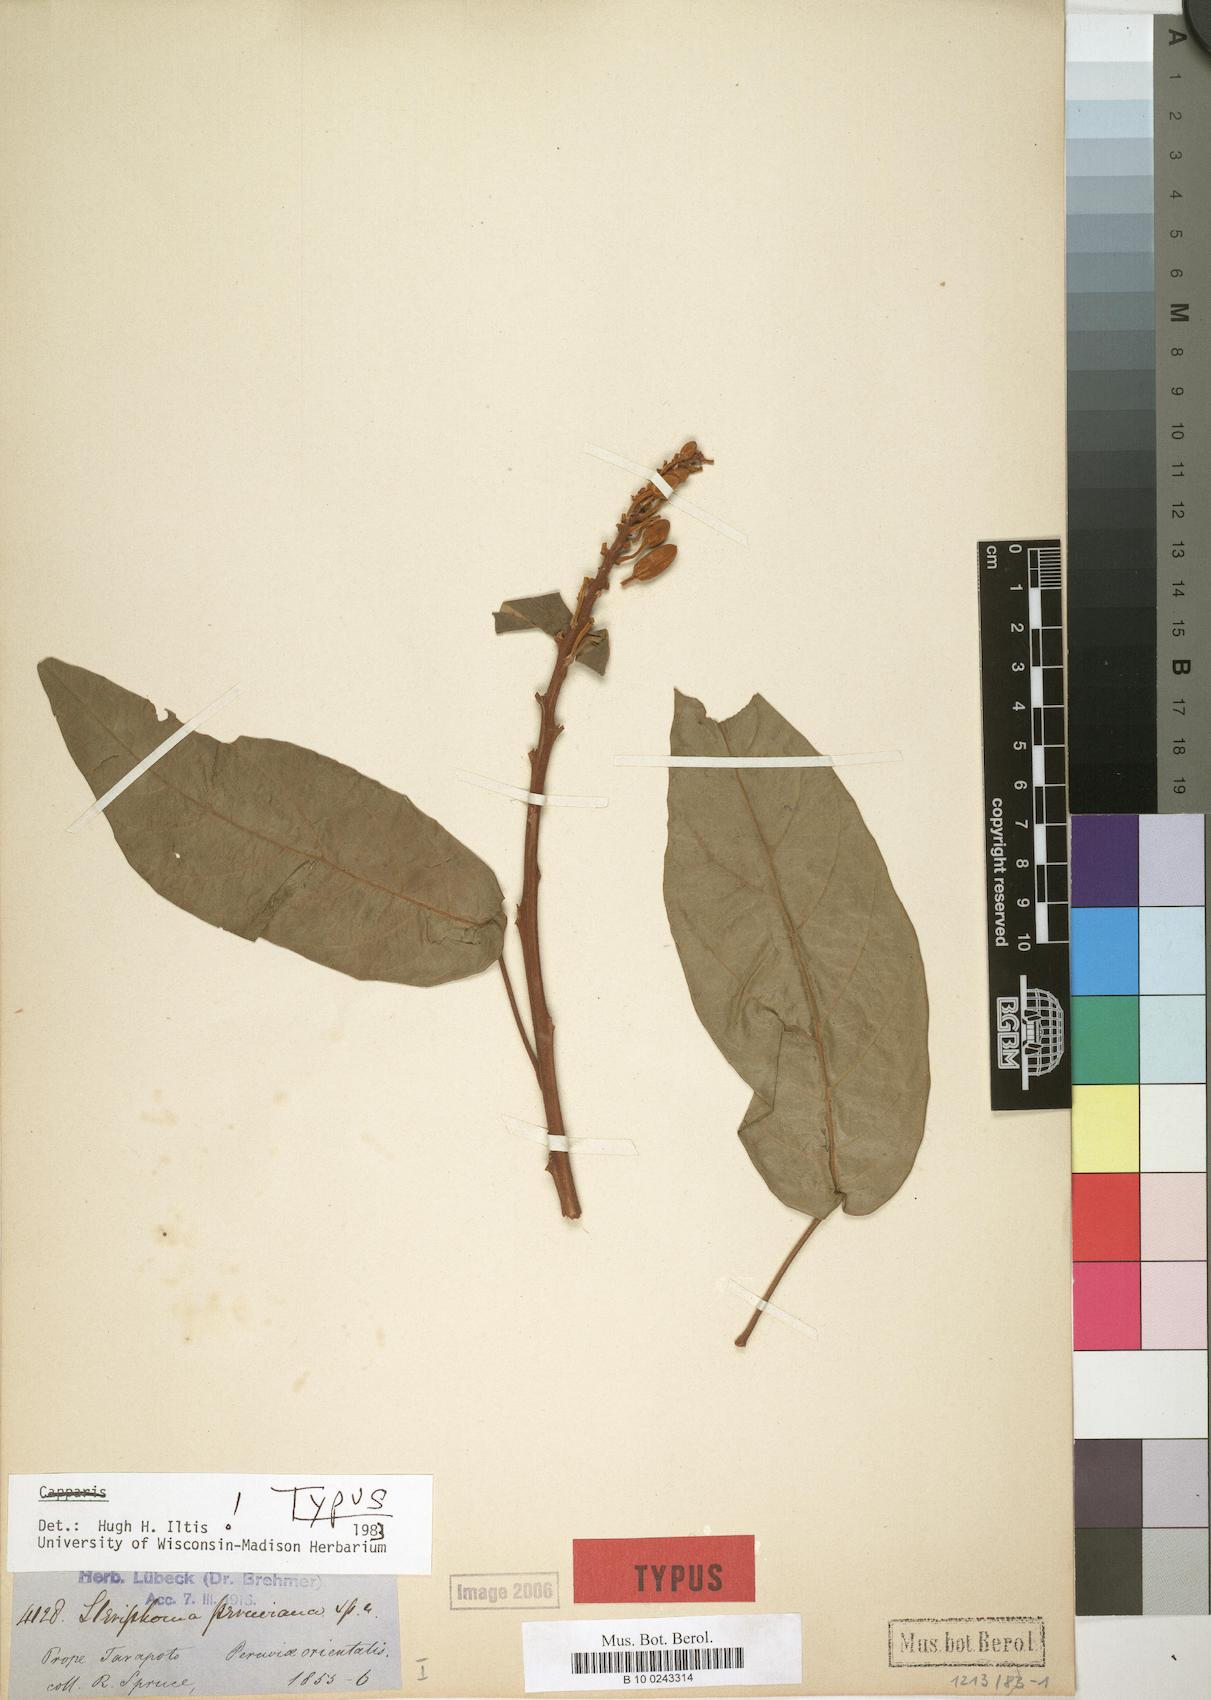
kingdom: Plantae
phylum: Tracheophyta
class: Magnoliopsida
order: Brassicales
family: Capparaceae
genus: Steriphoma
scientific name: Steriphoma peruvianum
